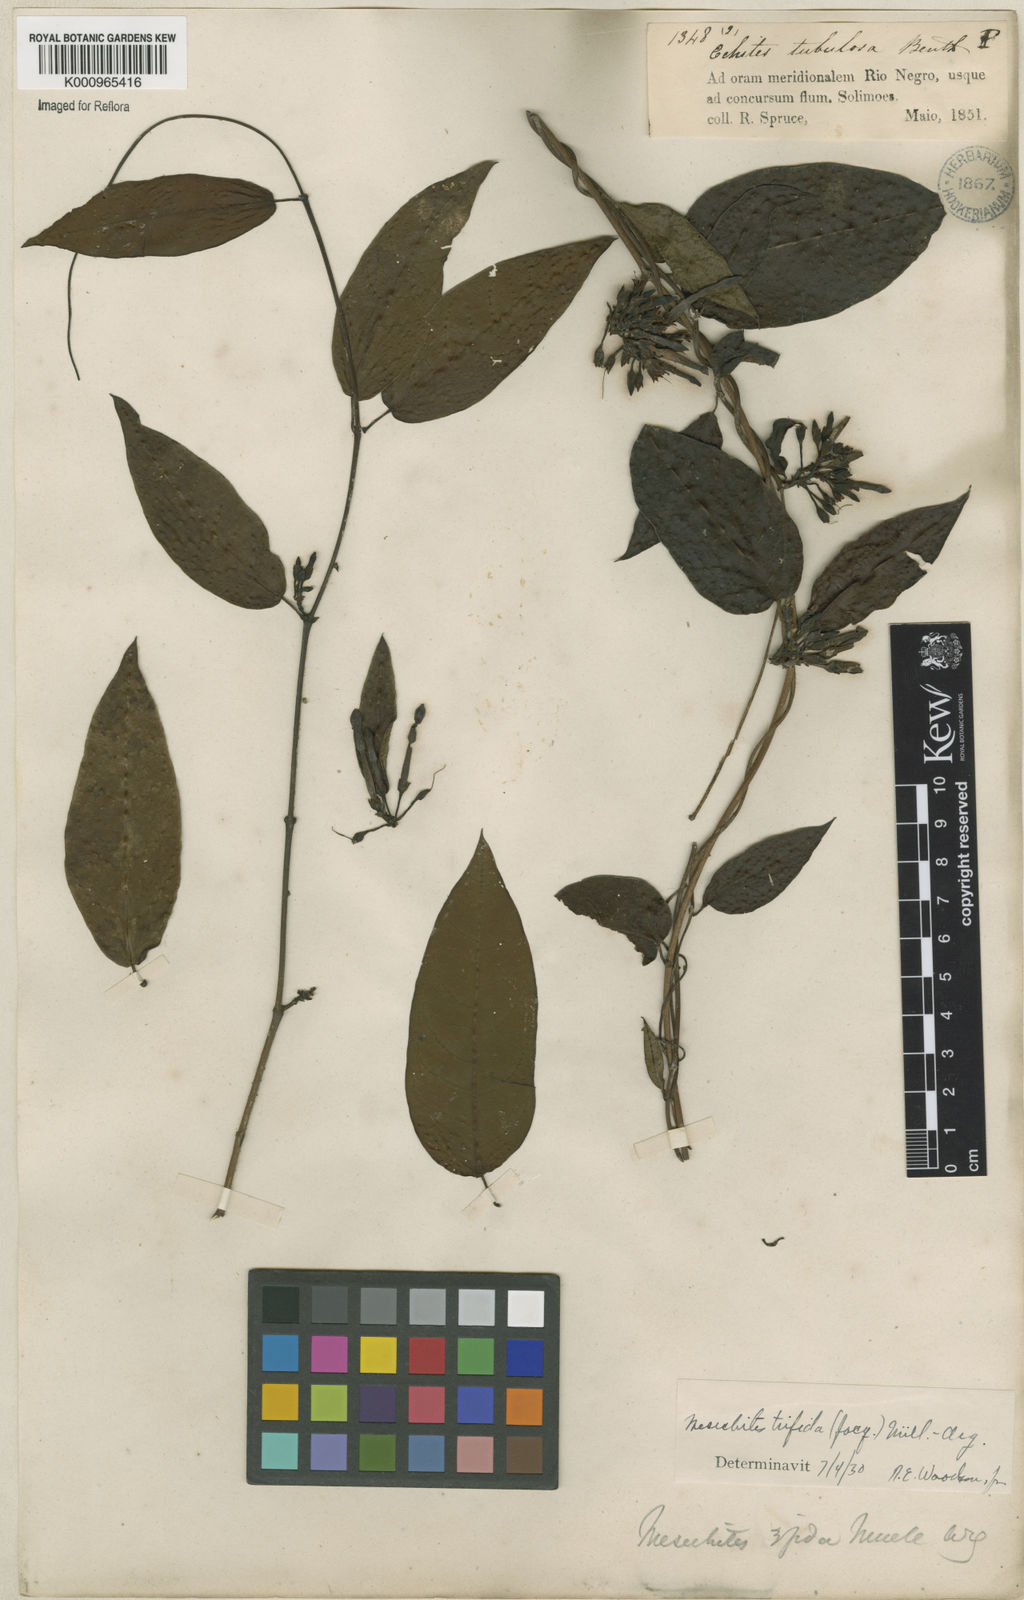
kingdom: Plantae
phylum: Tracheophyta
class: Magnoliopsida
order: Gentianales
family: Apocynaceae
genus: Mesechites
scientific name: Mesechites
